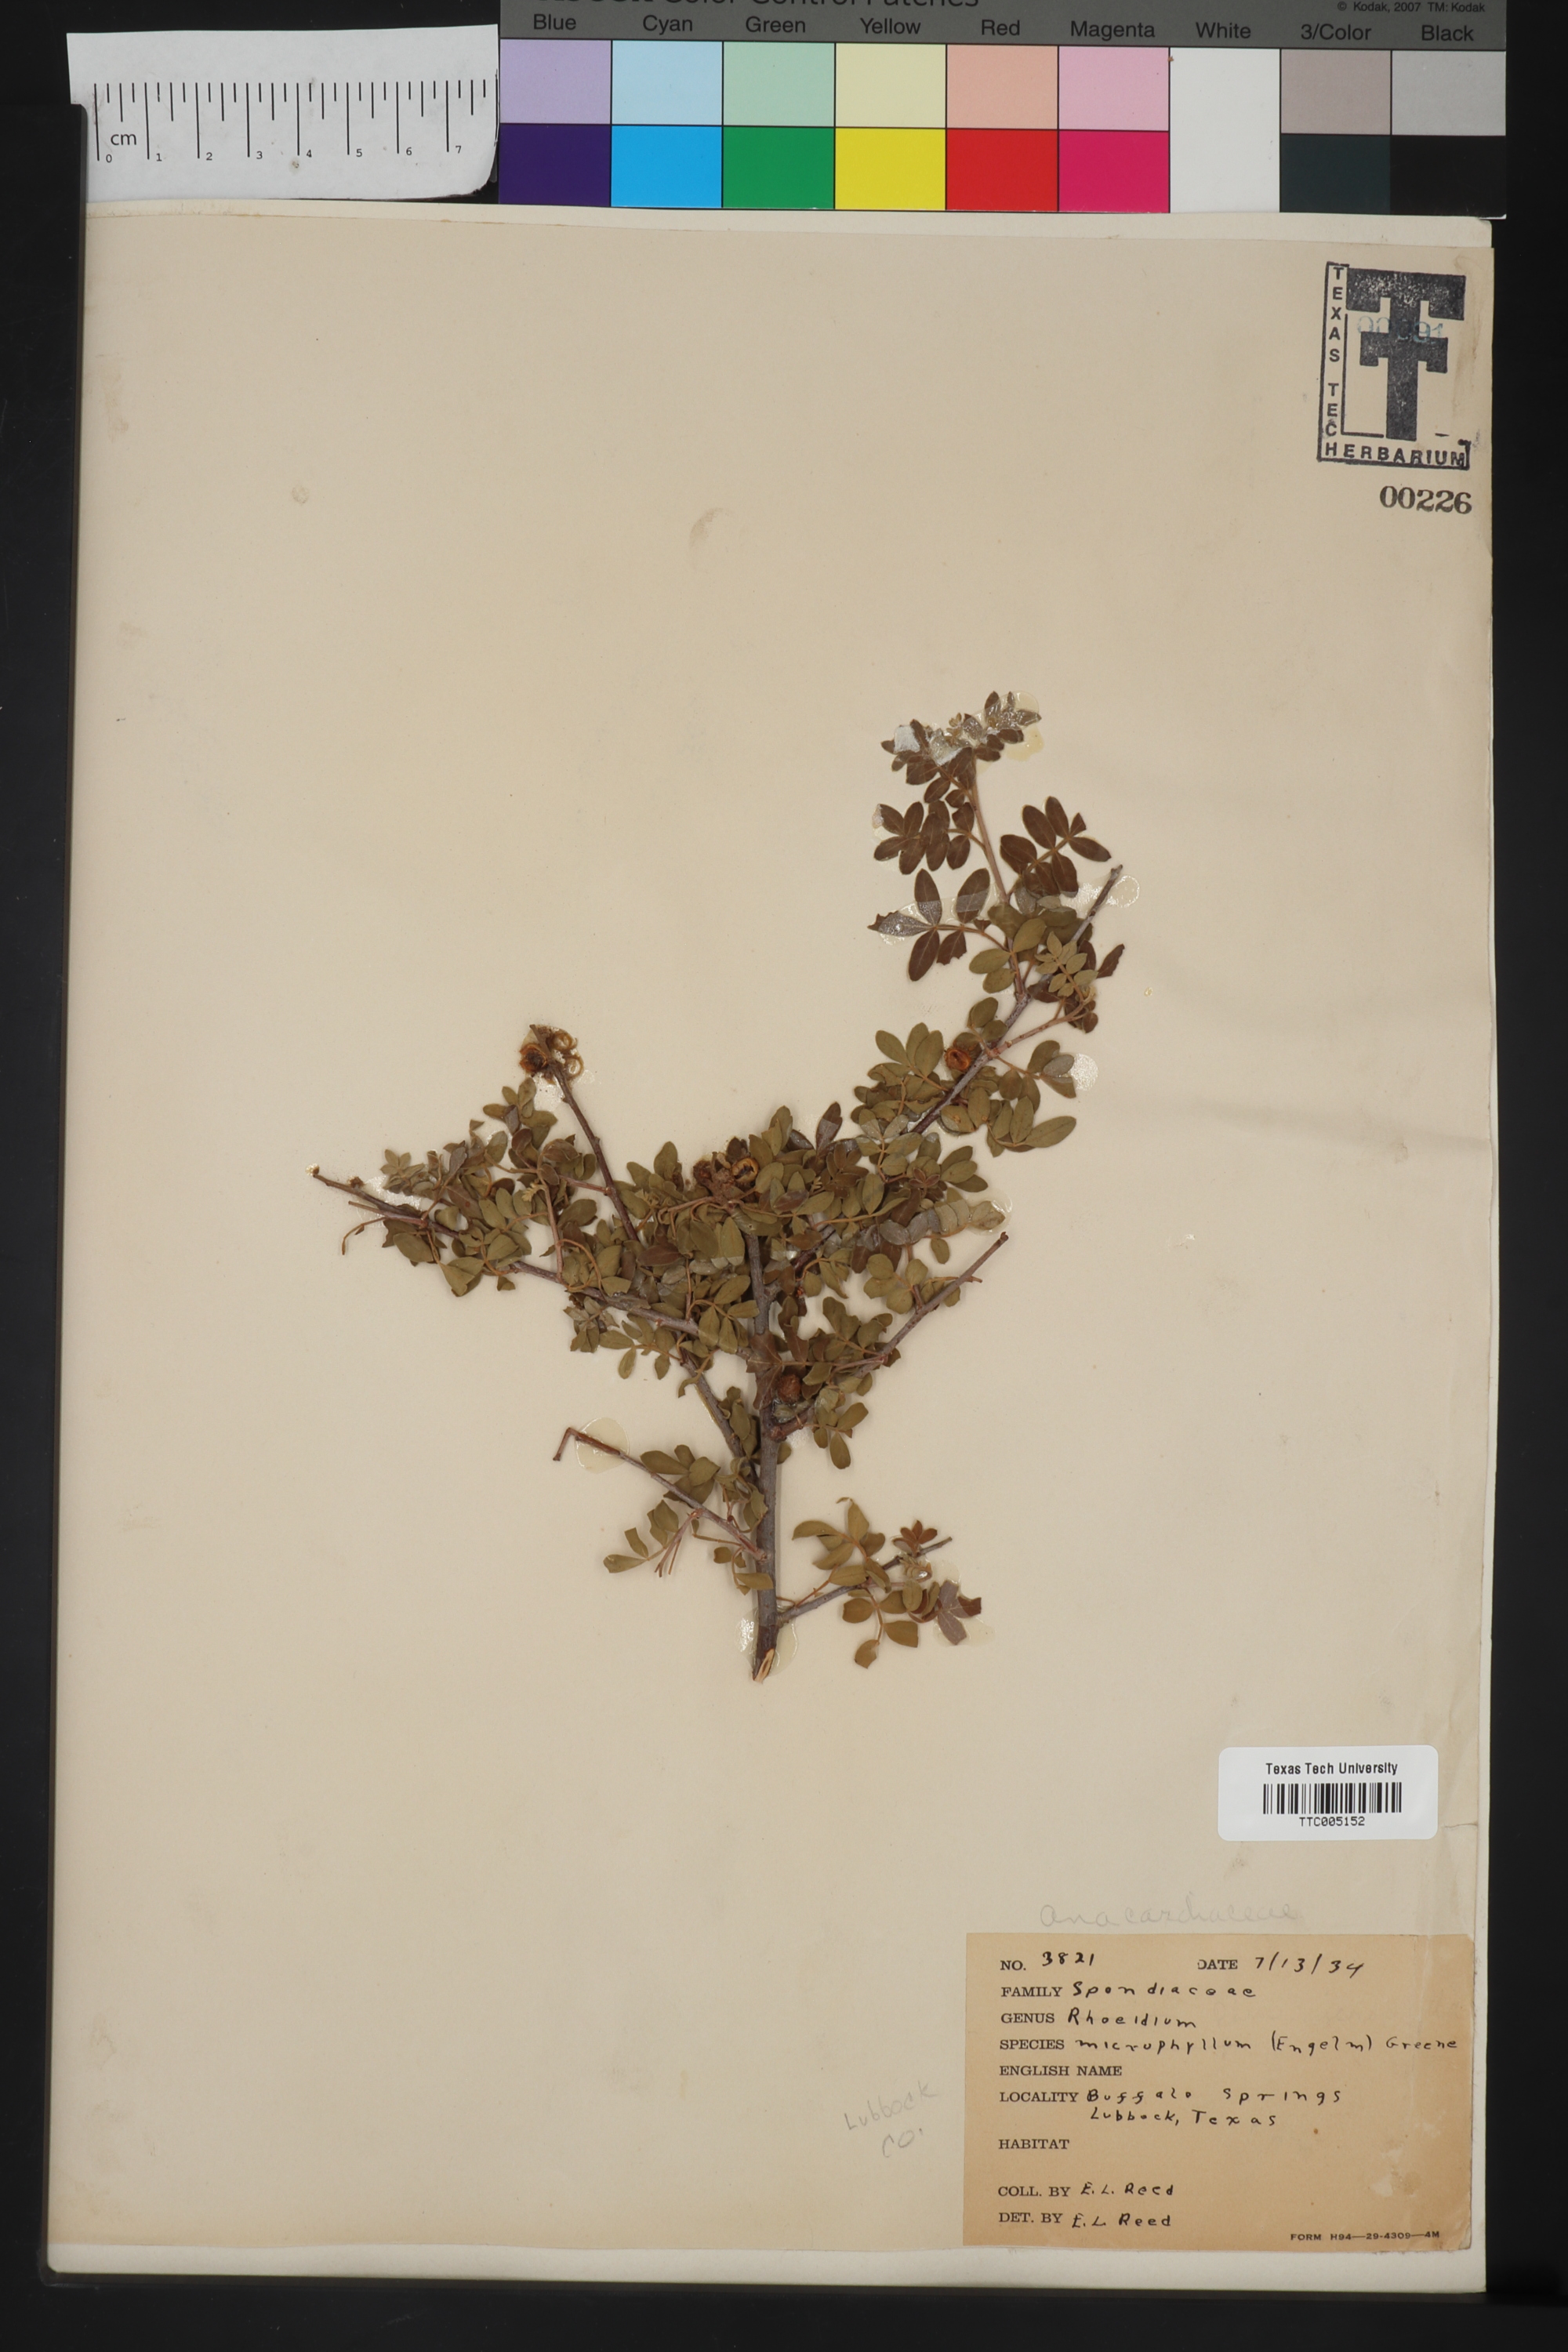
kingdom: Plantae
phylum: Tracheophyta
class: Magnoliopsida
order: Sapindales
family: Anacardiaceae
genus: Rhus
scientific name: Rhus microphylla
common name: Desert sumac
